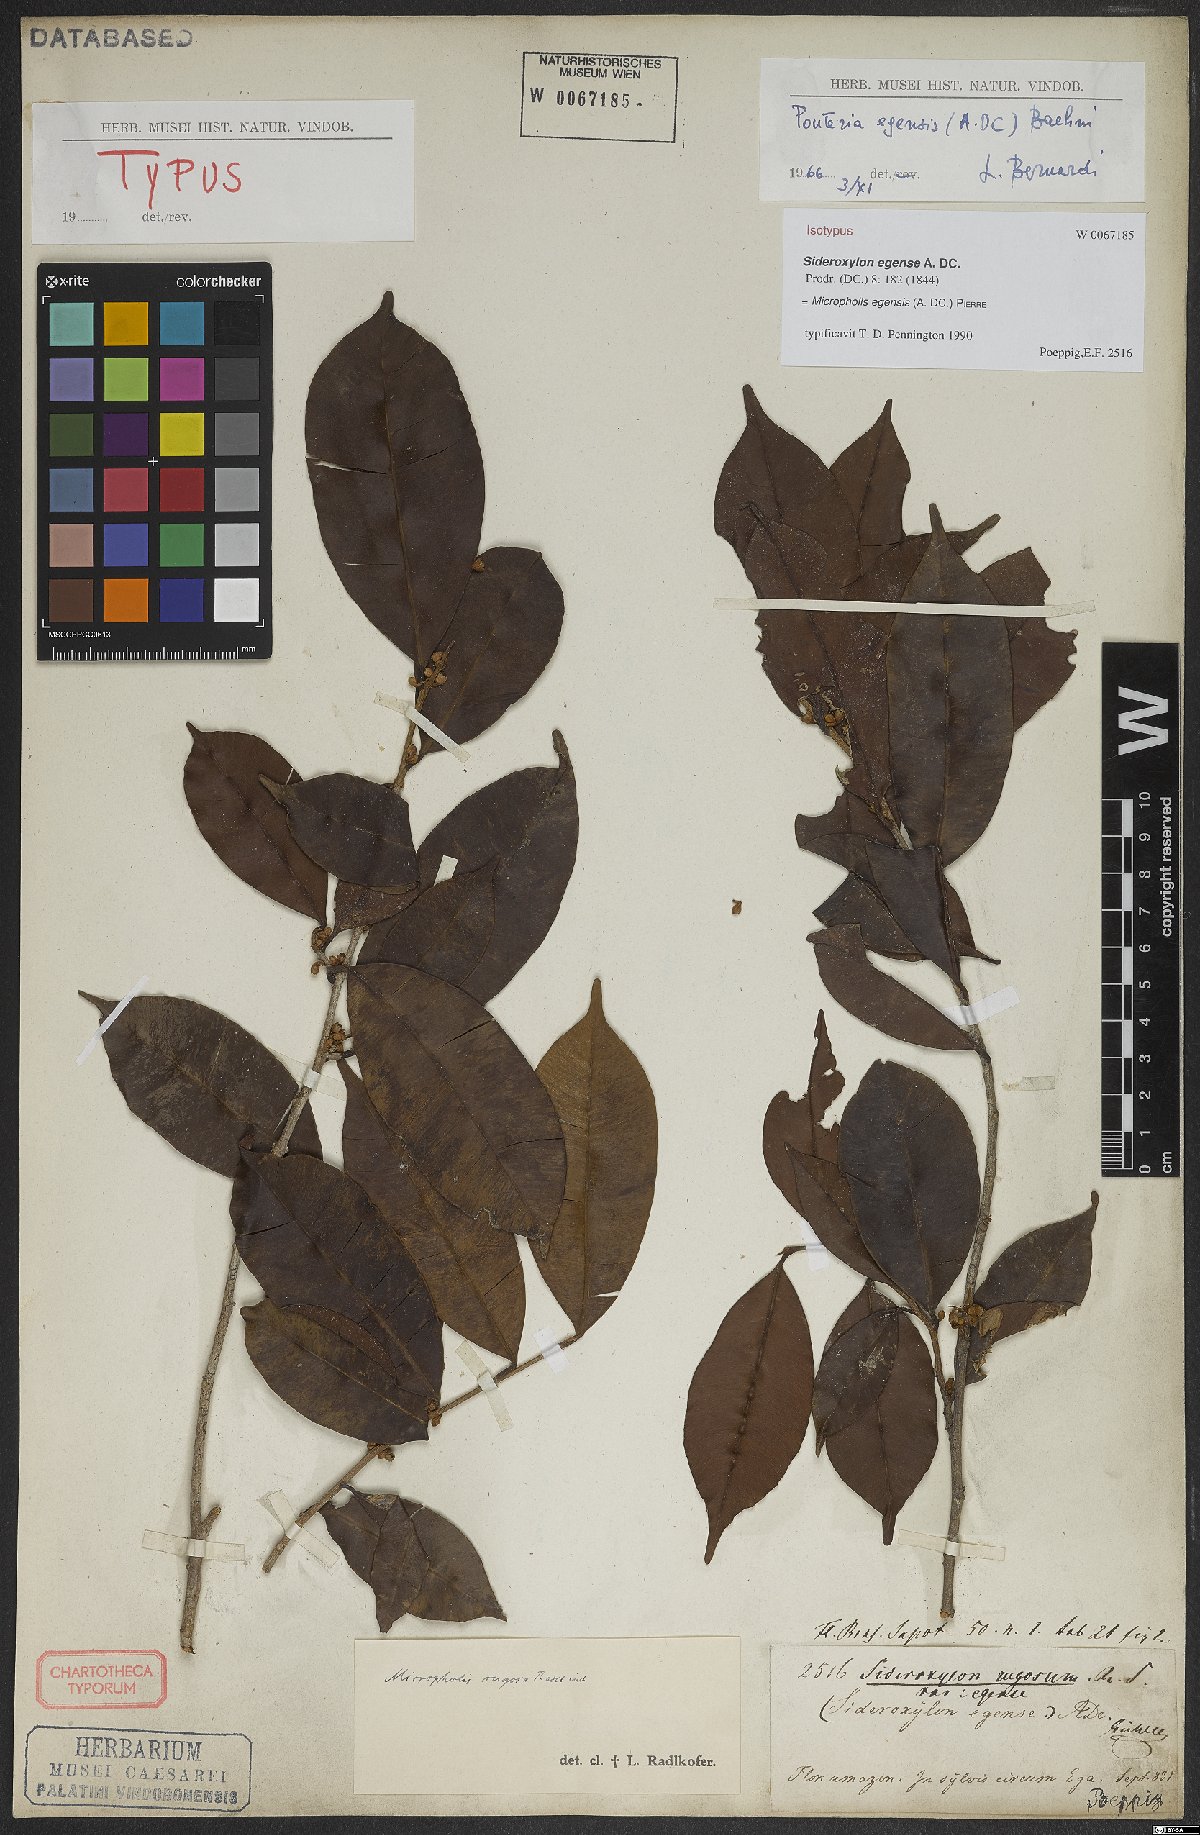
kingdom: Plantae
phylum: Tracheophyta
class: Magnoliopsida
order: Ericales
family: Sapotaceae
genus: Micropholis
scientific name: Micropholis egensis
